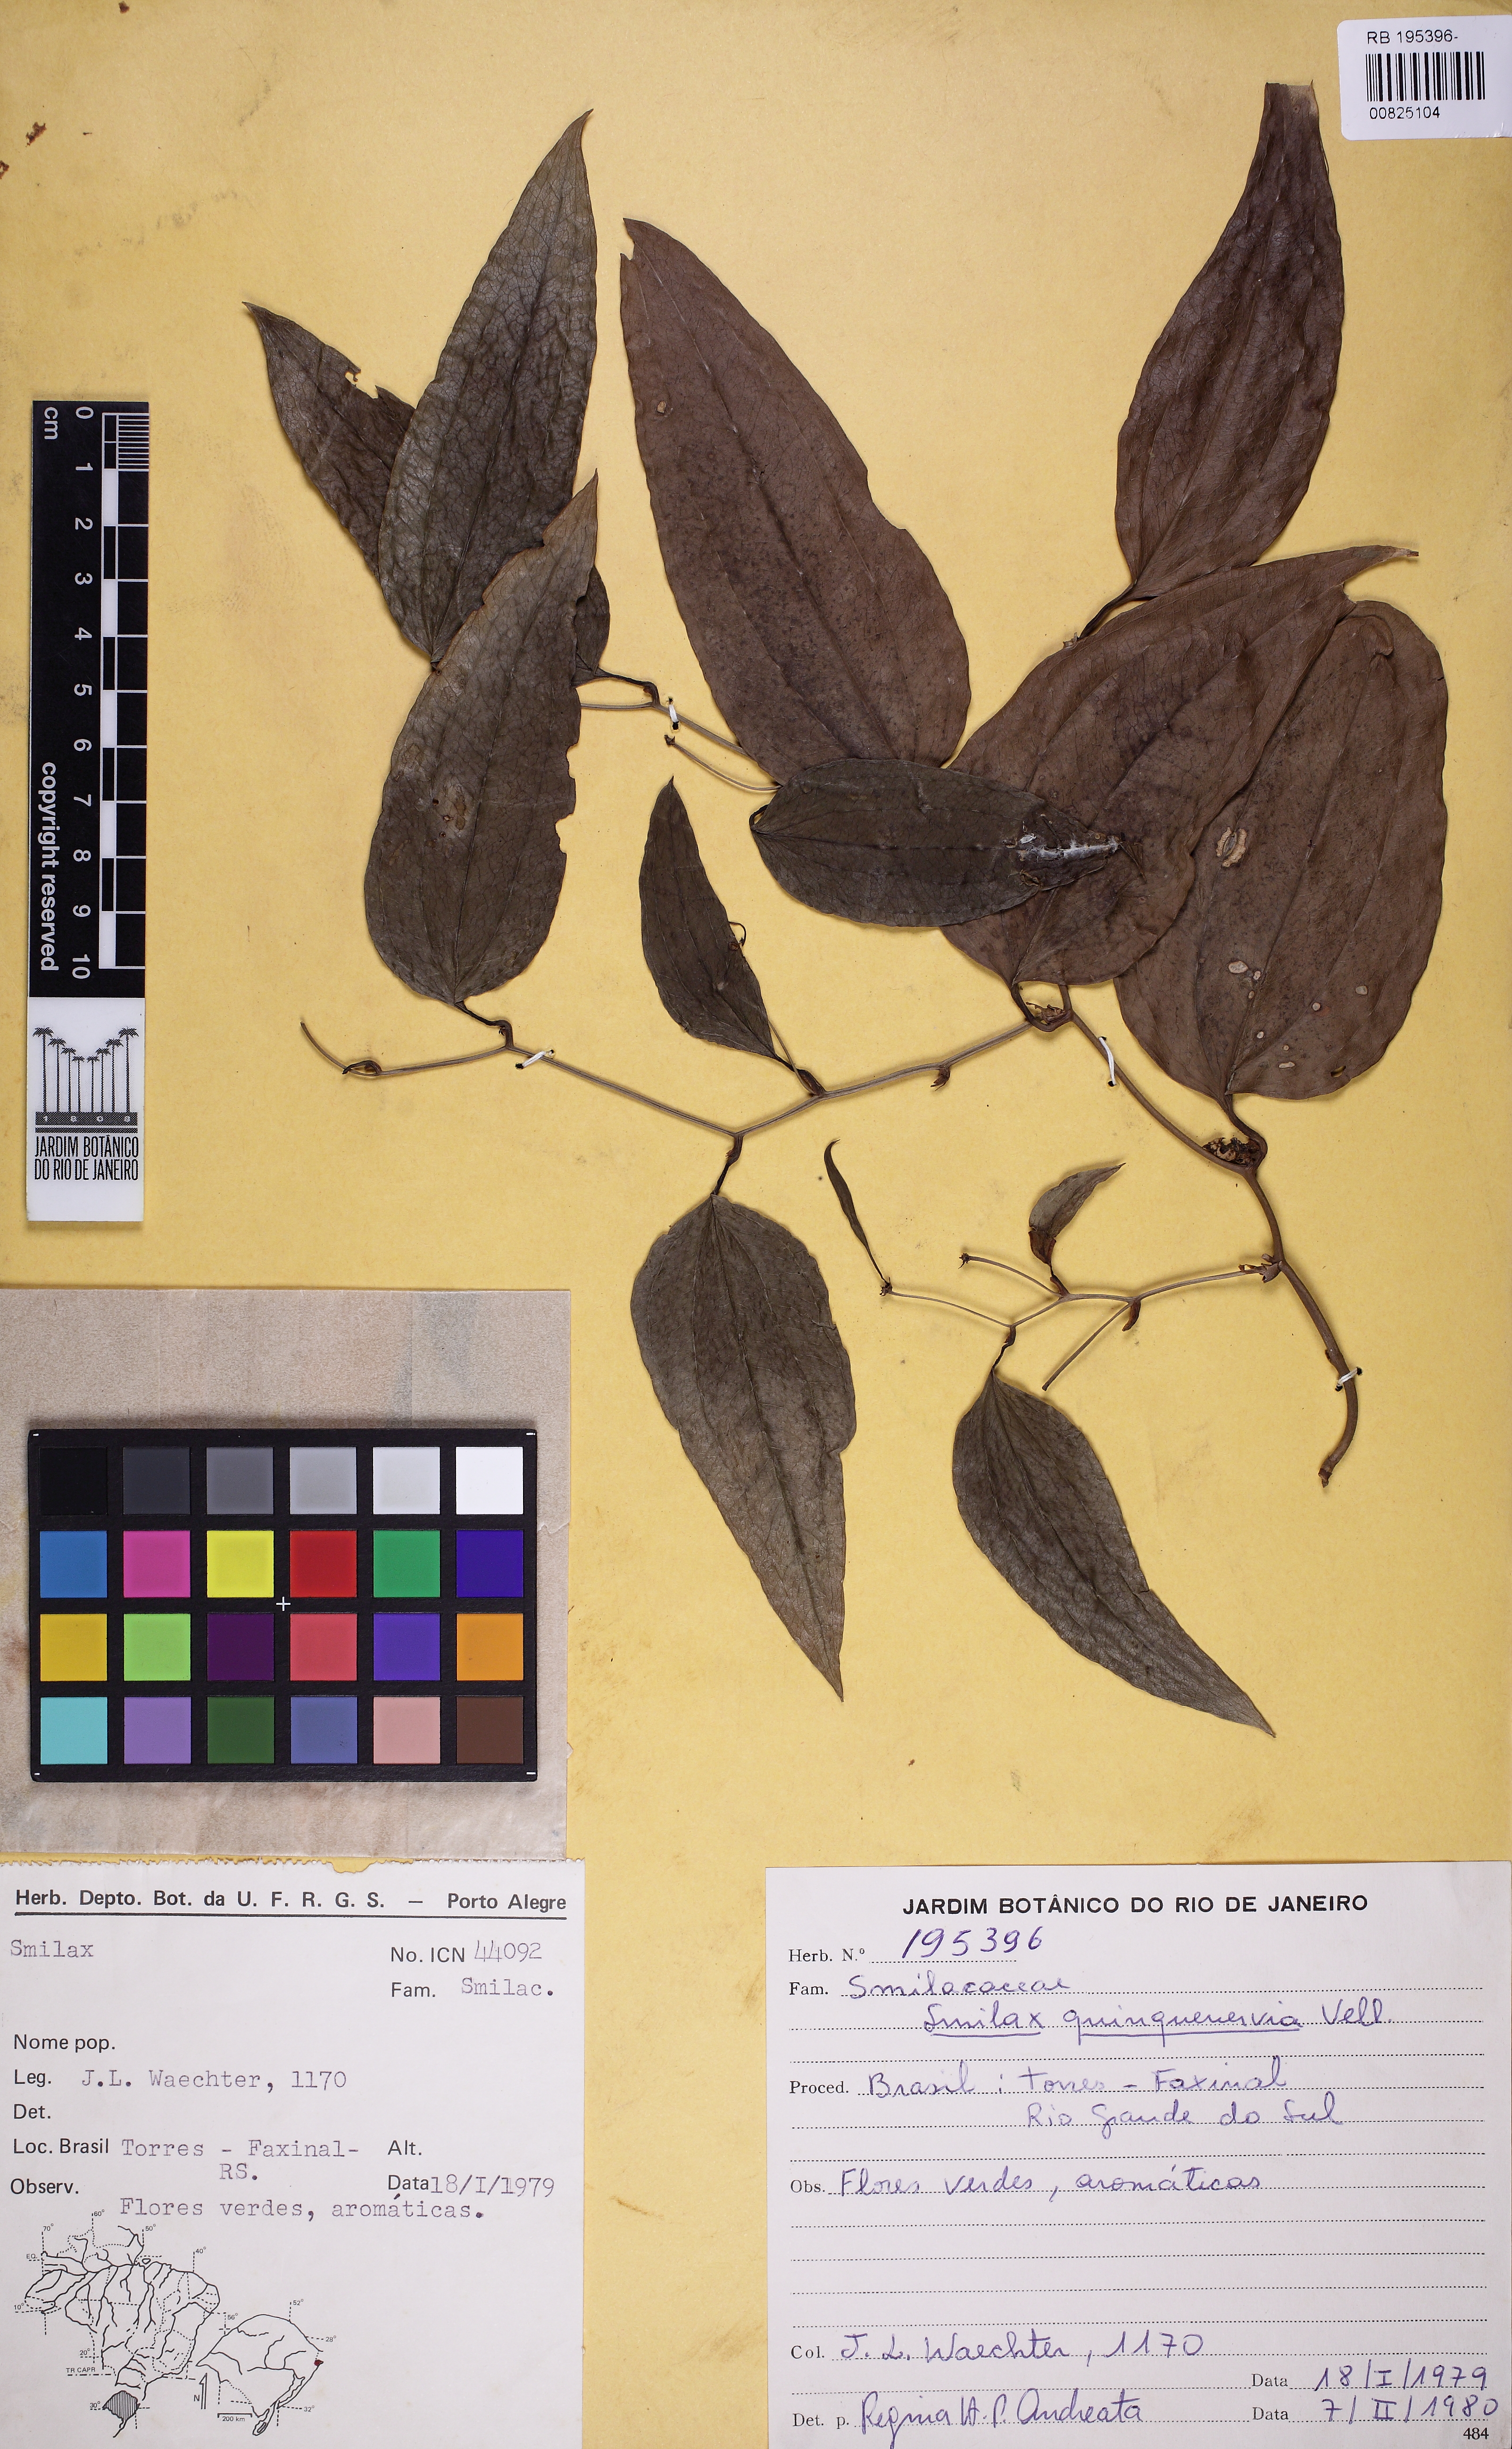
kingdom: Plantae
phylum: Tracheophyta
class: Liliopsida
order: Liliales
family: Smilacaceae
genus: Smilax
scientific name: Smilax quinquenervia
